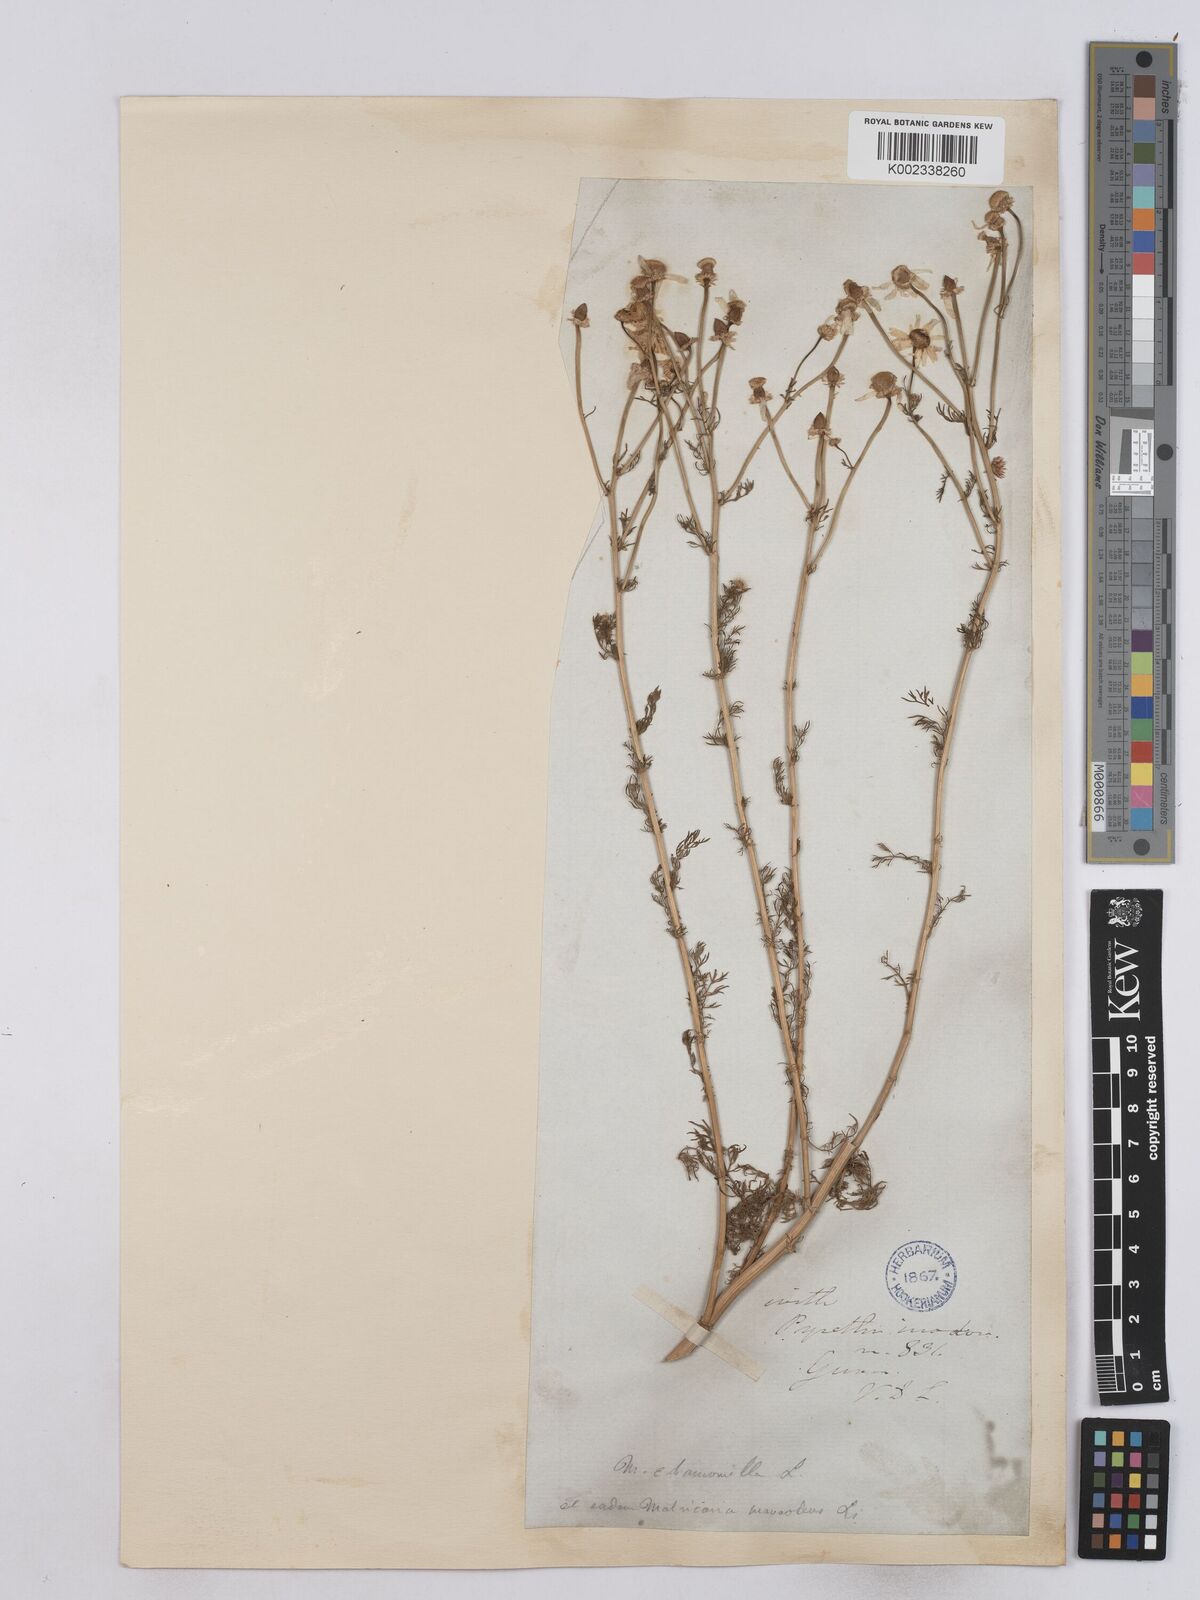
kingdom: Plantae
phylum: Tracheophyta
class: Magnoliopsida
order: Asterales
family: Asteraceae
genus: Matricaria
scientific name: Matricaria chamomilla
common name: Scented mayweed
